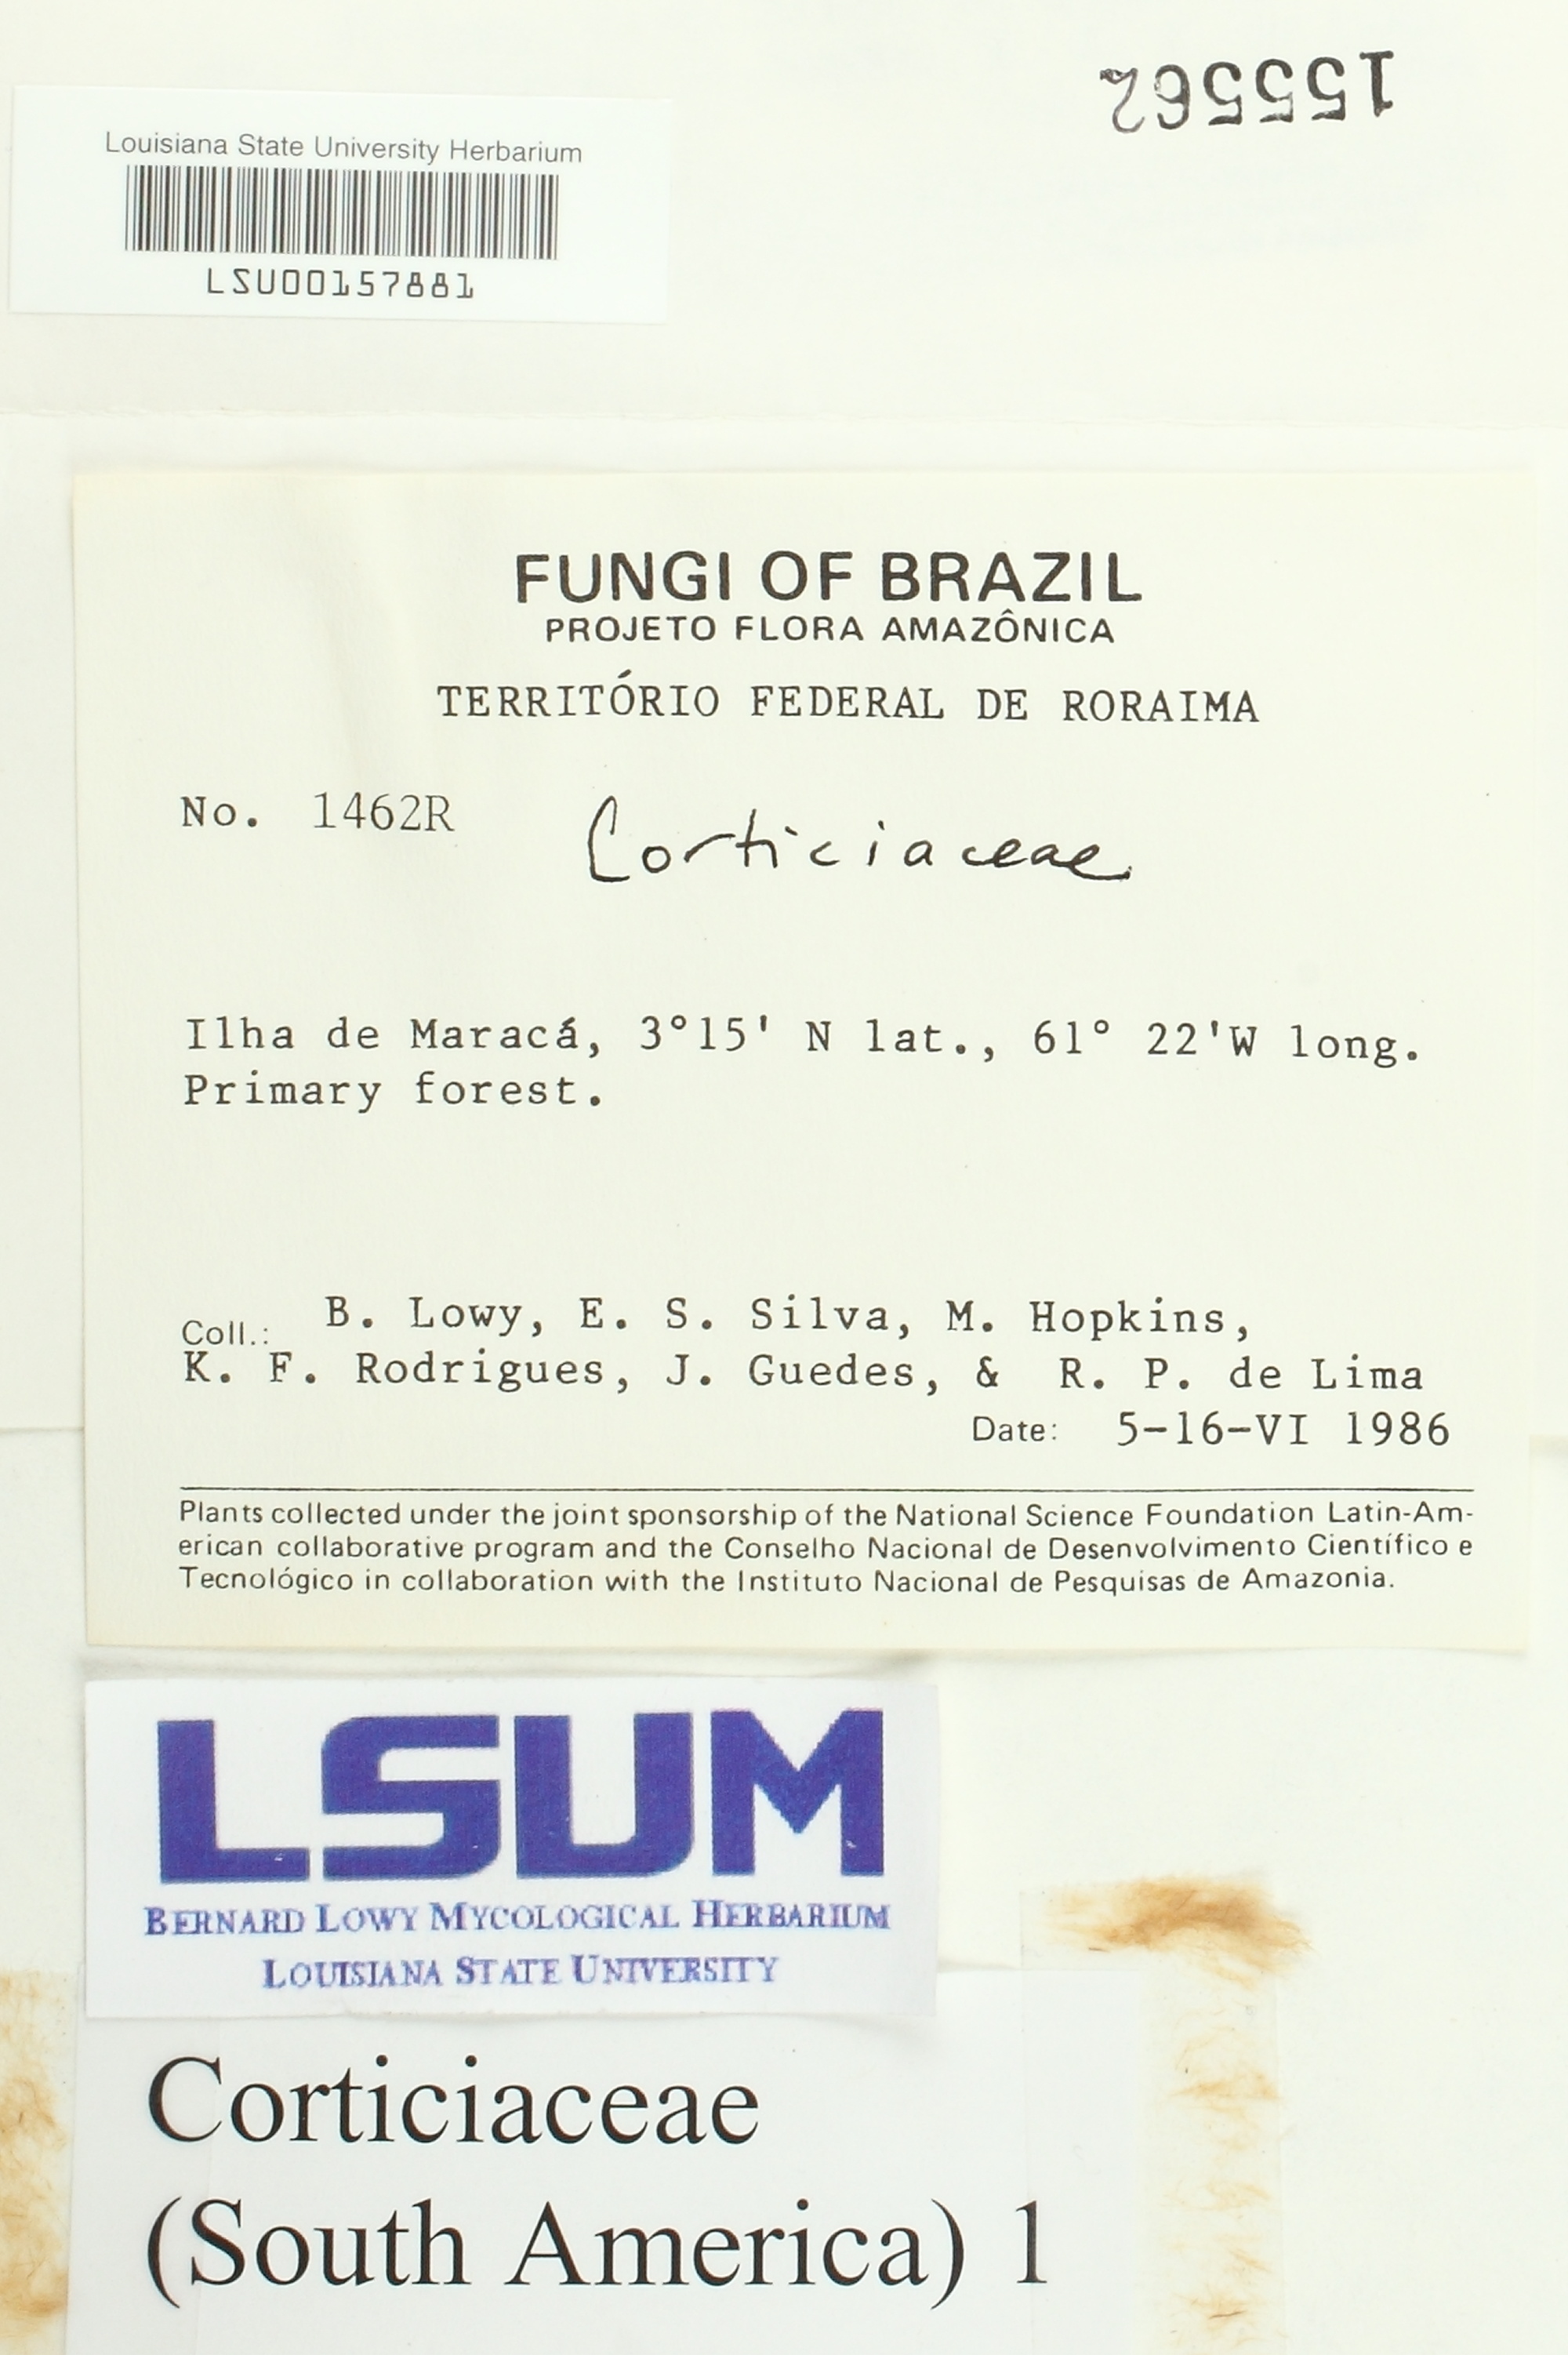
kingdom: Fungi
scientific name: Fungi
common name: Fungi
